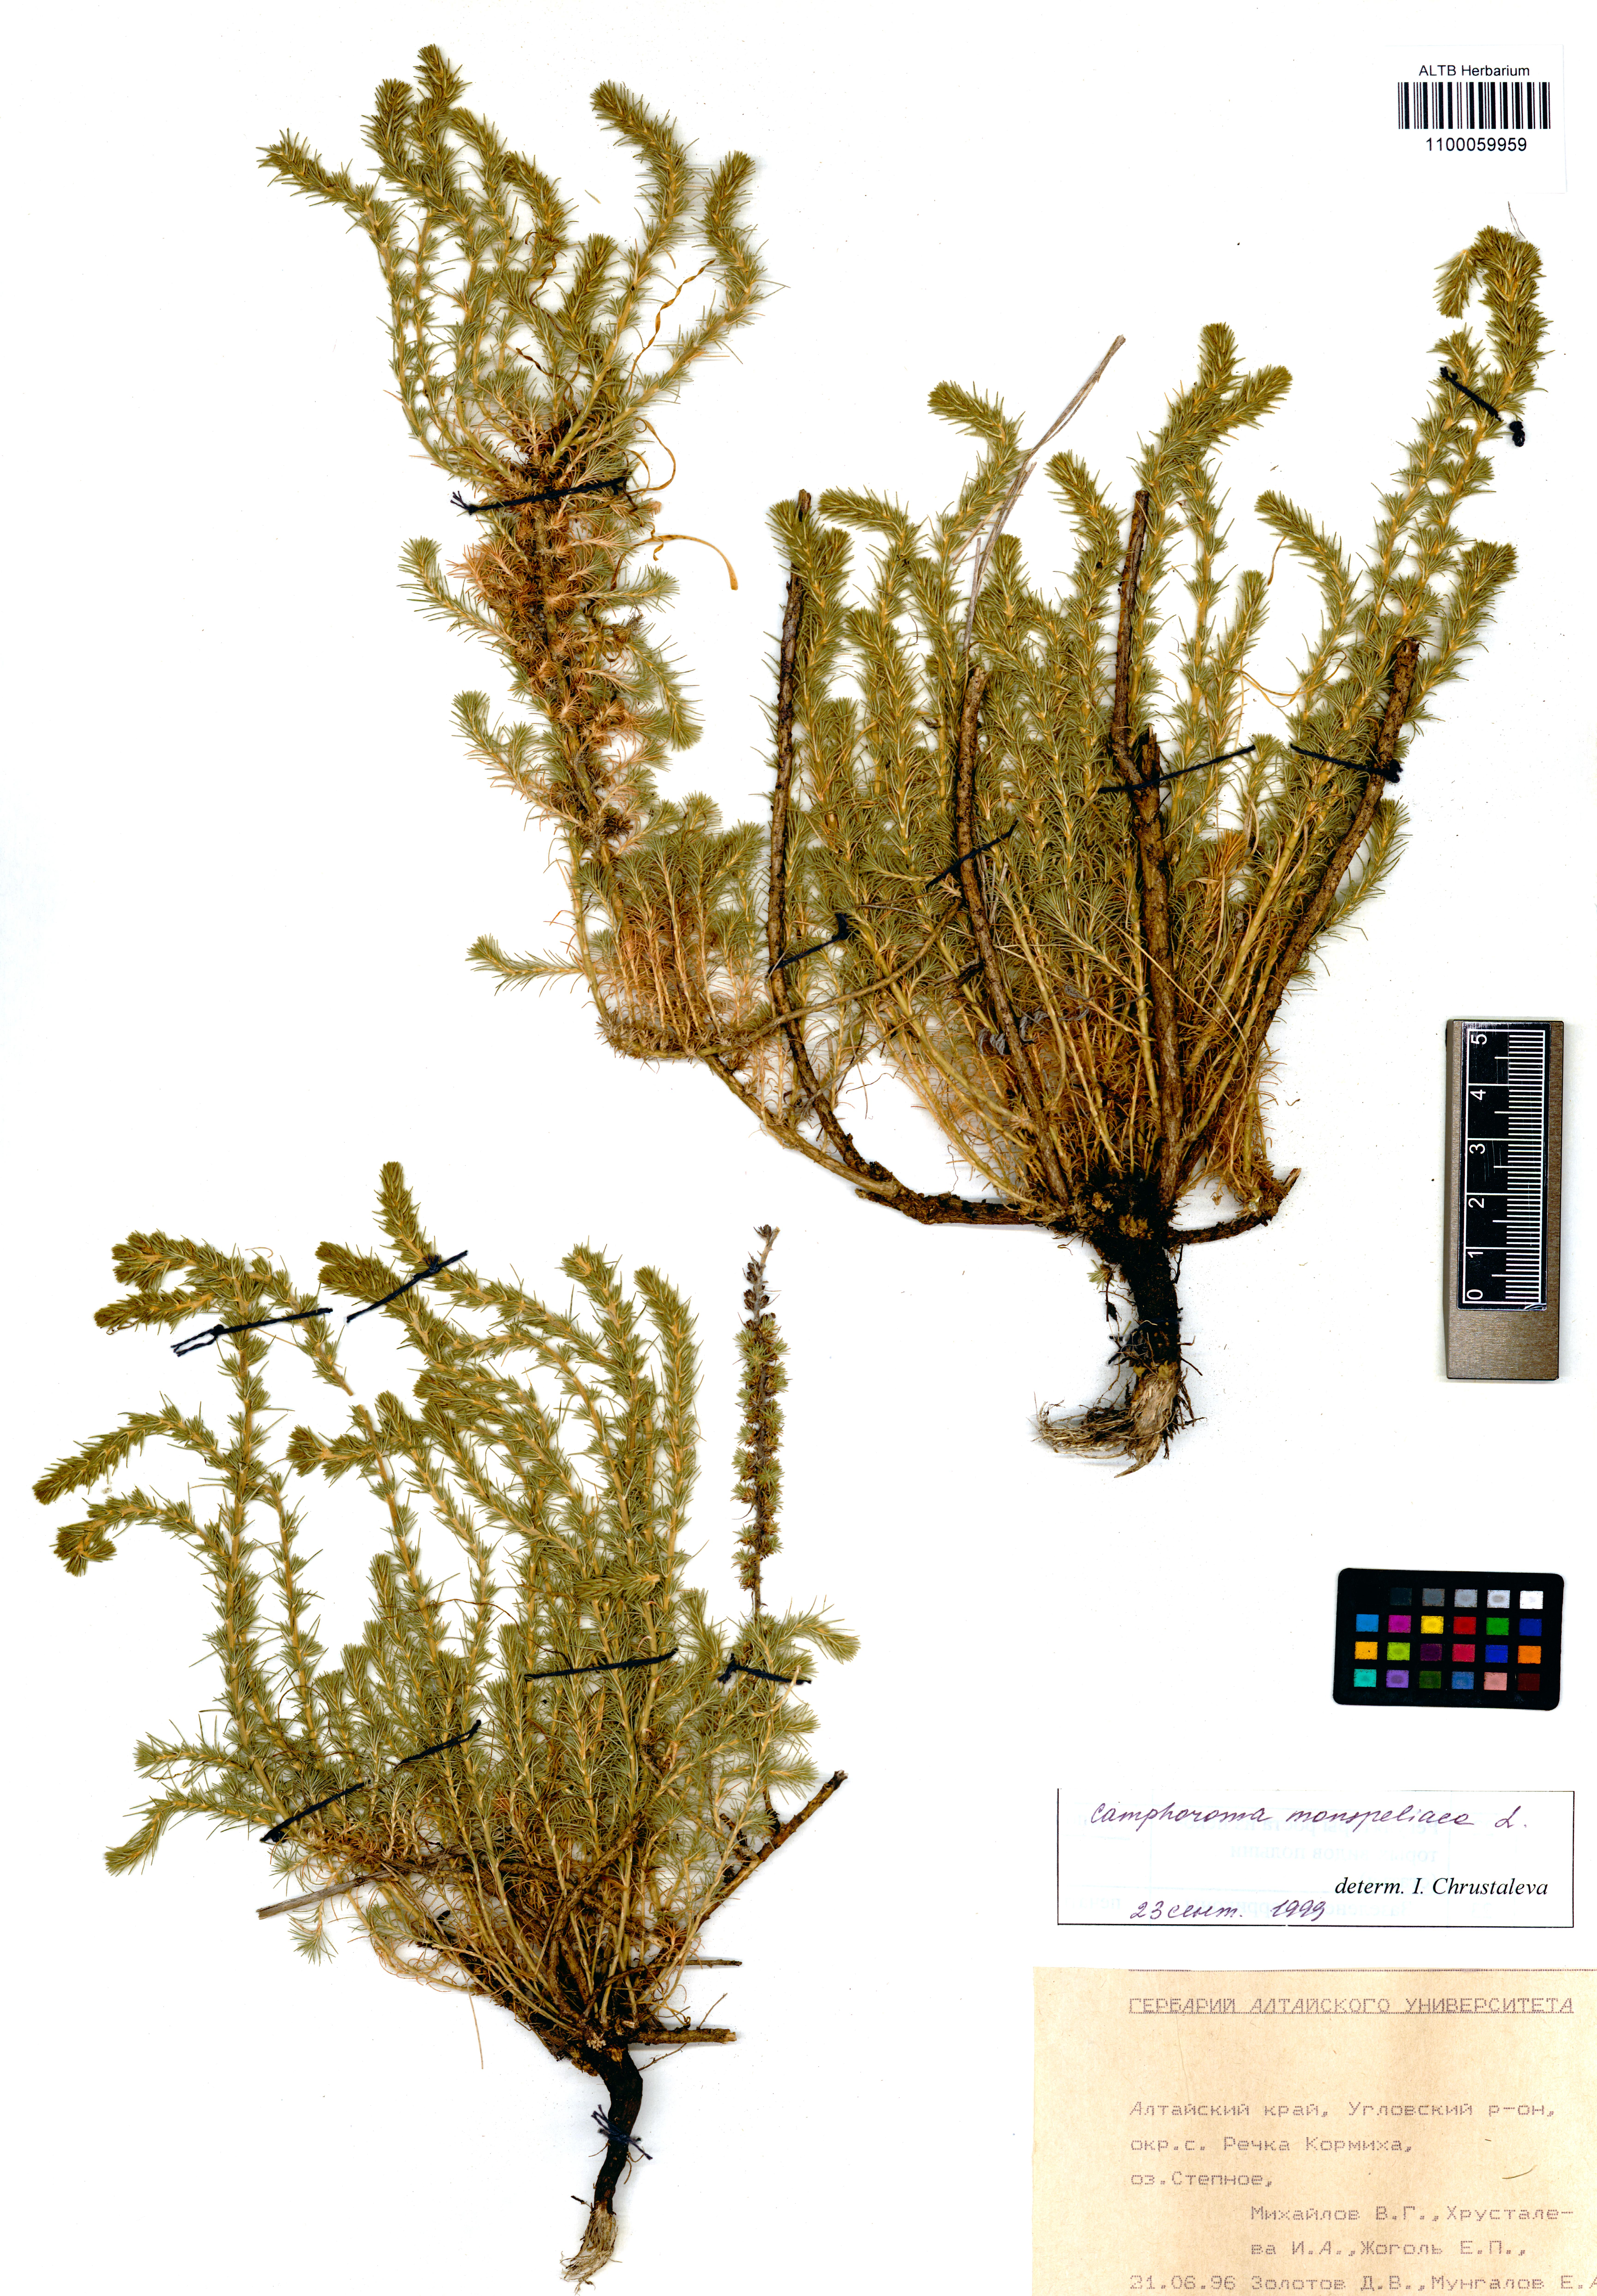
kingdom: Plantae
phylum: Tracheophyta
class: Magnoliopsida
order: Caryophyllales
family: Amaranthaceae
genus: Camphorosma
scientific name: Camphorosma monspeliaca
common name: Camphorfume
